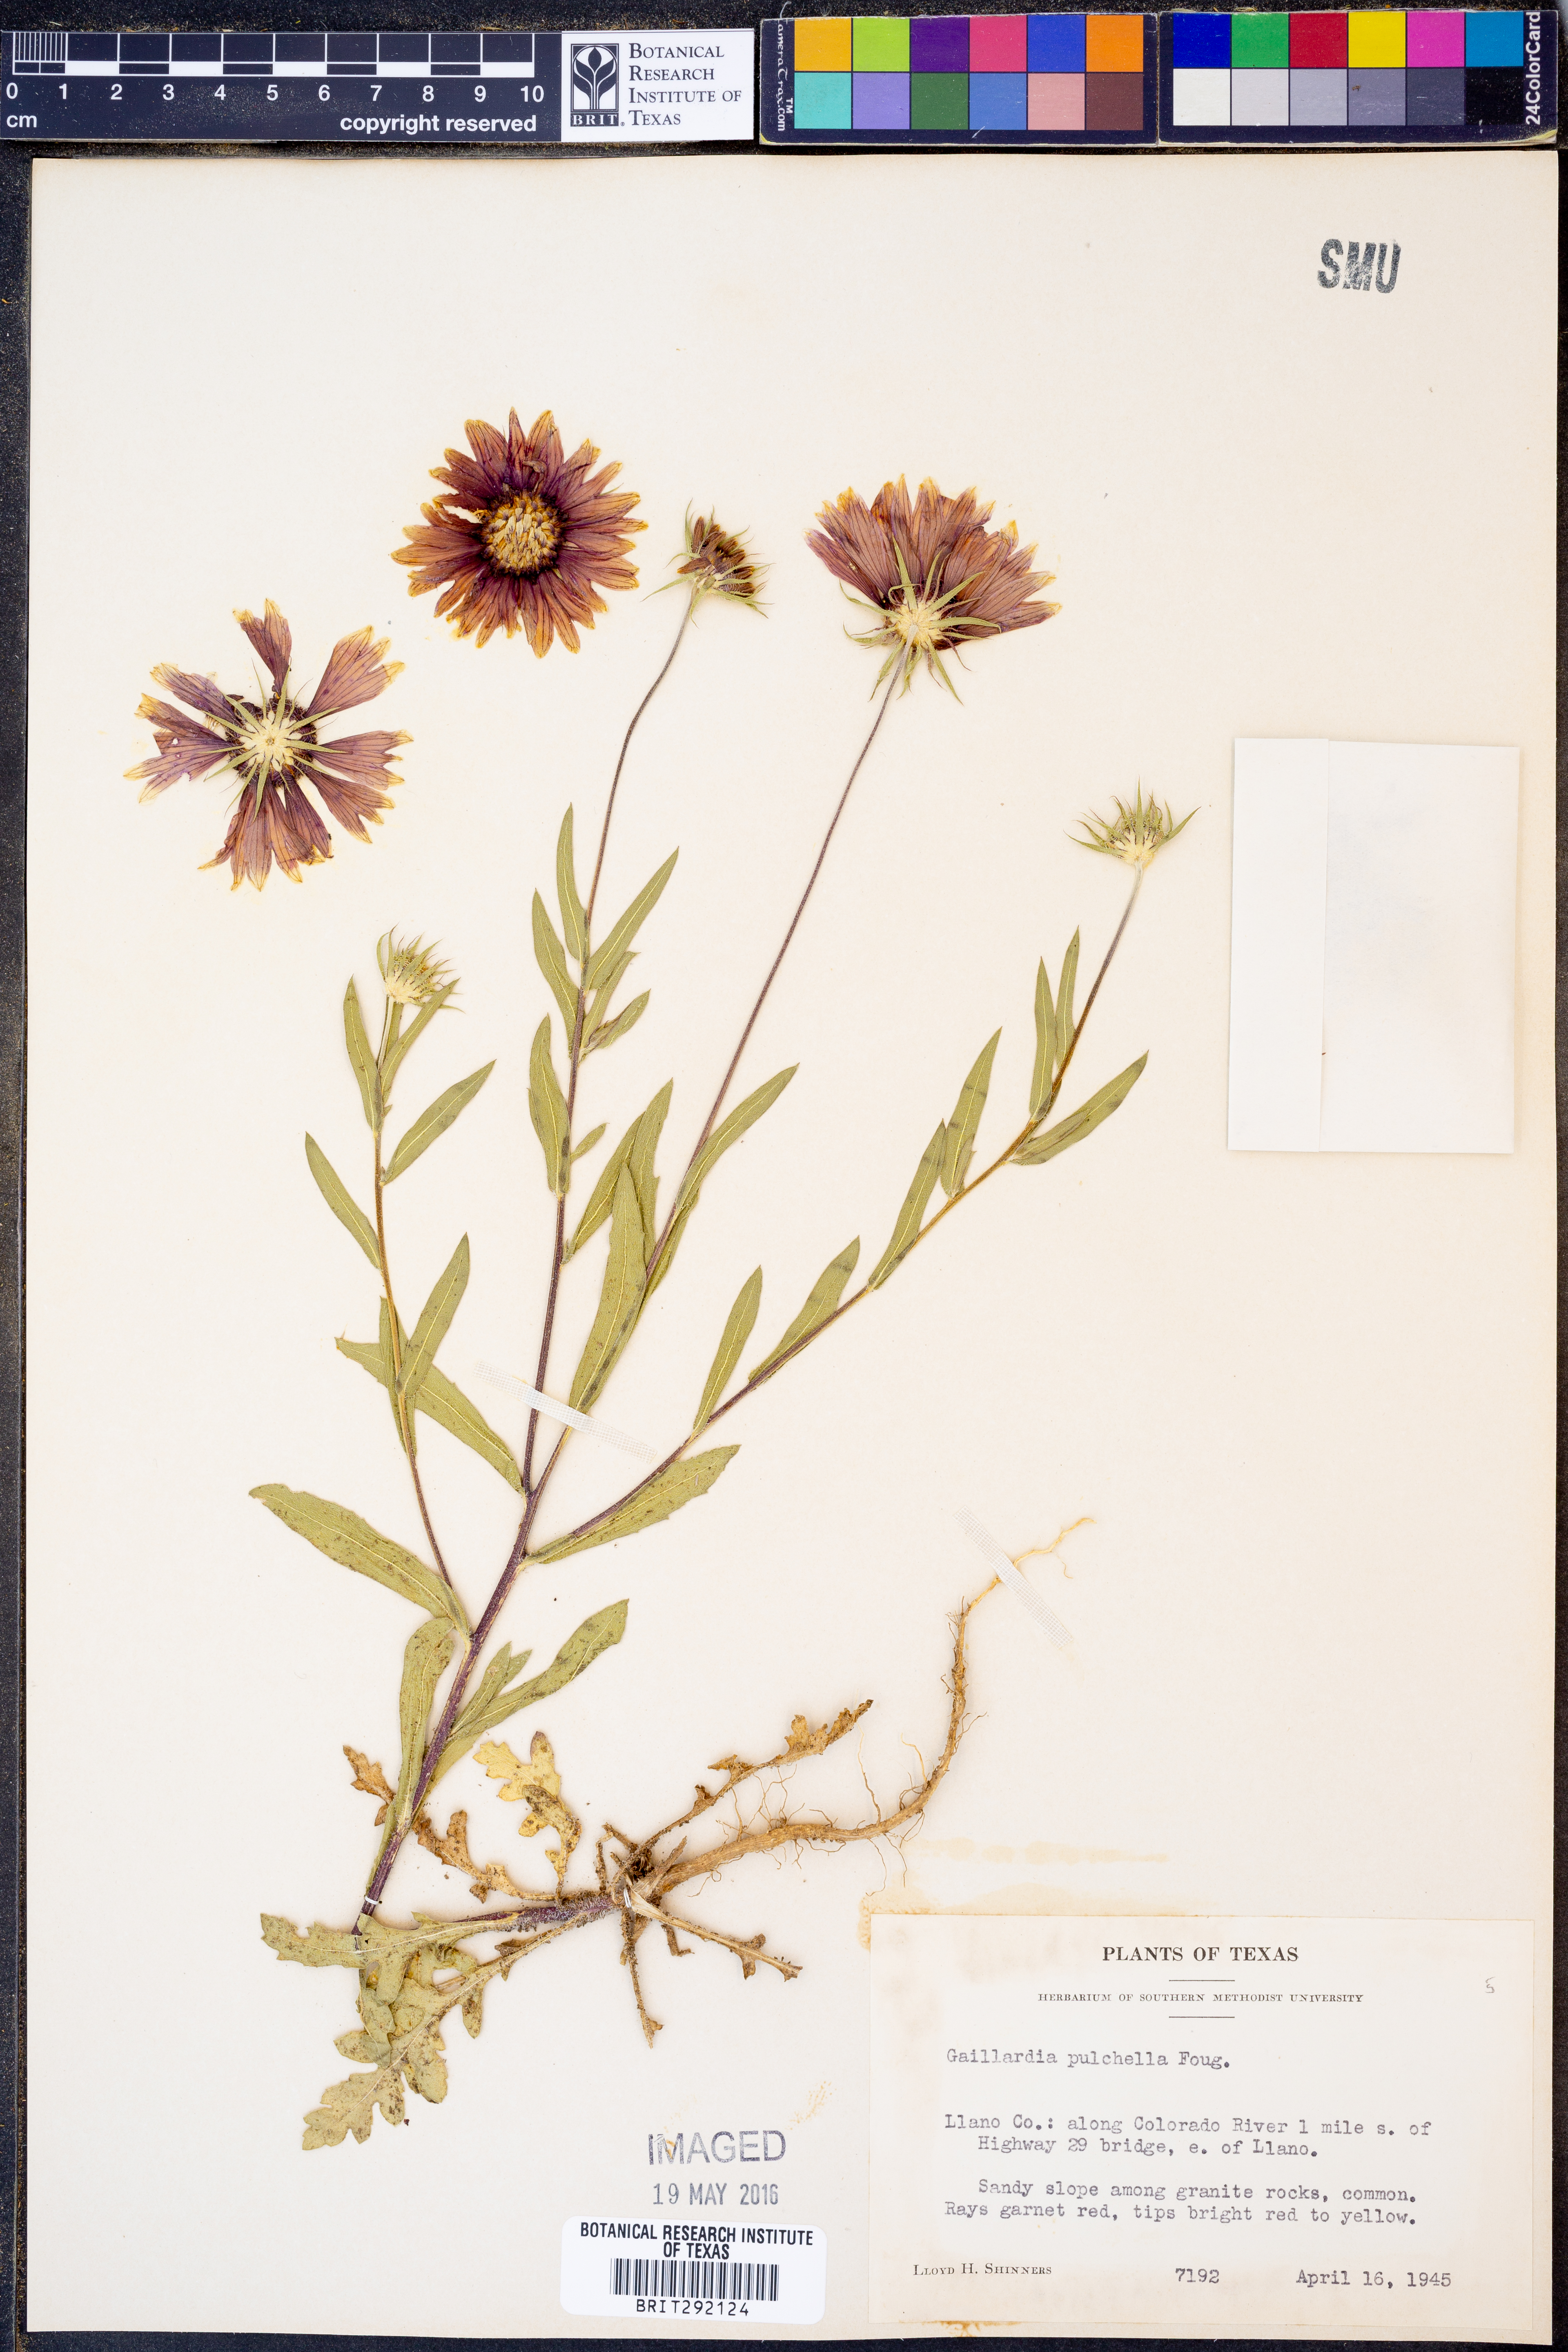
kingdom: Plantae
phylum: Tracheophyta
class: Magnoliopsida
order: Asterales
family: Asteraceae
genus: Gaillardia
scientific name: Gaillardia pulchella
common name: Firewheel
